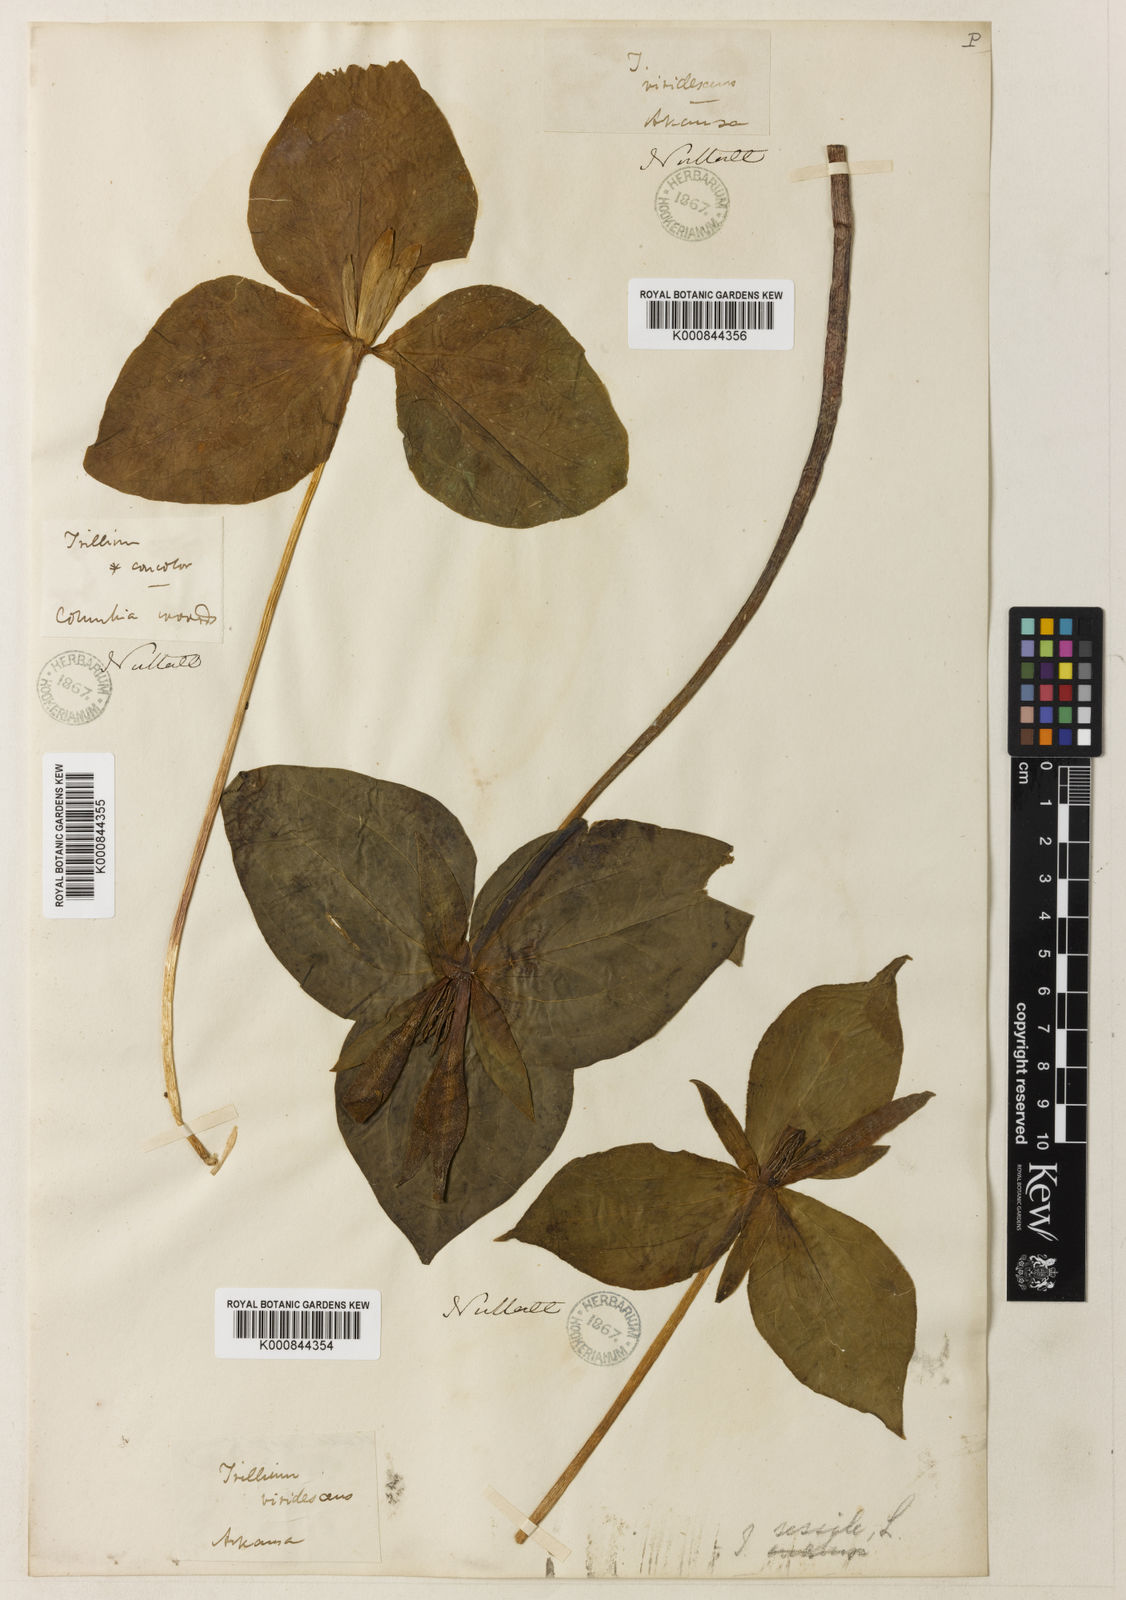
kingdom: Plantae
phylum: Tracheophyta
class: Liliopsida
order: Liliales
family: Melanthiaceae
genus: Trillium
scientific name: Trillium viridescens
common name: Ozark green trillium
